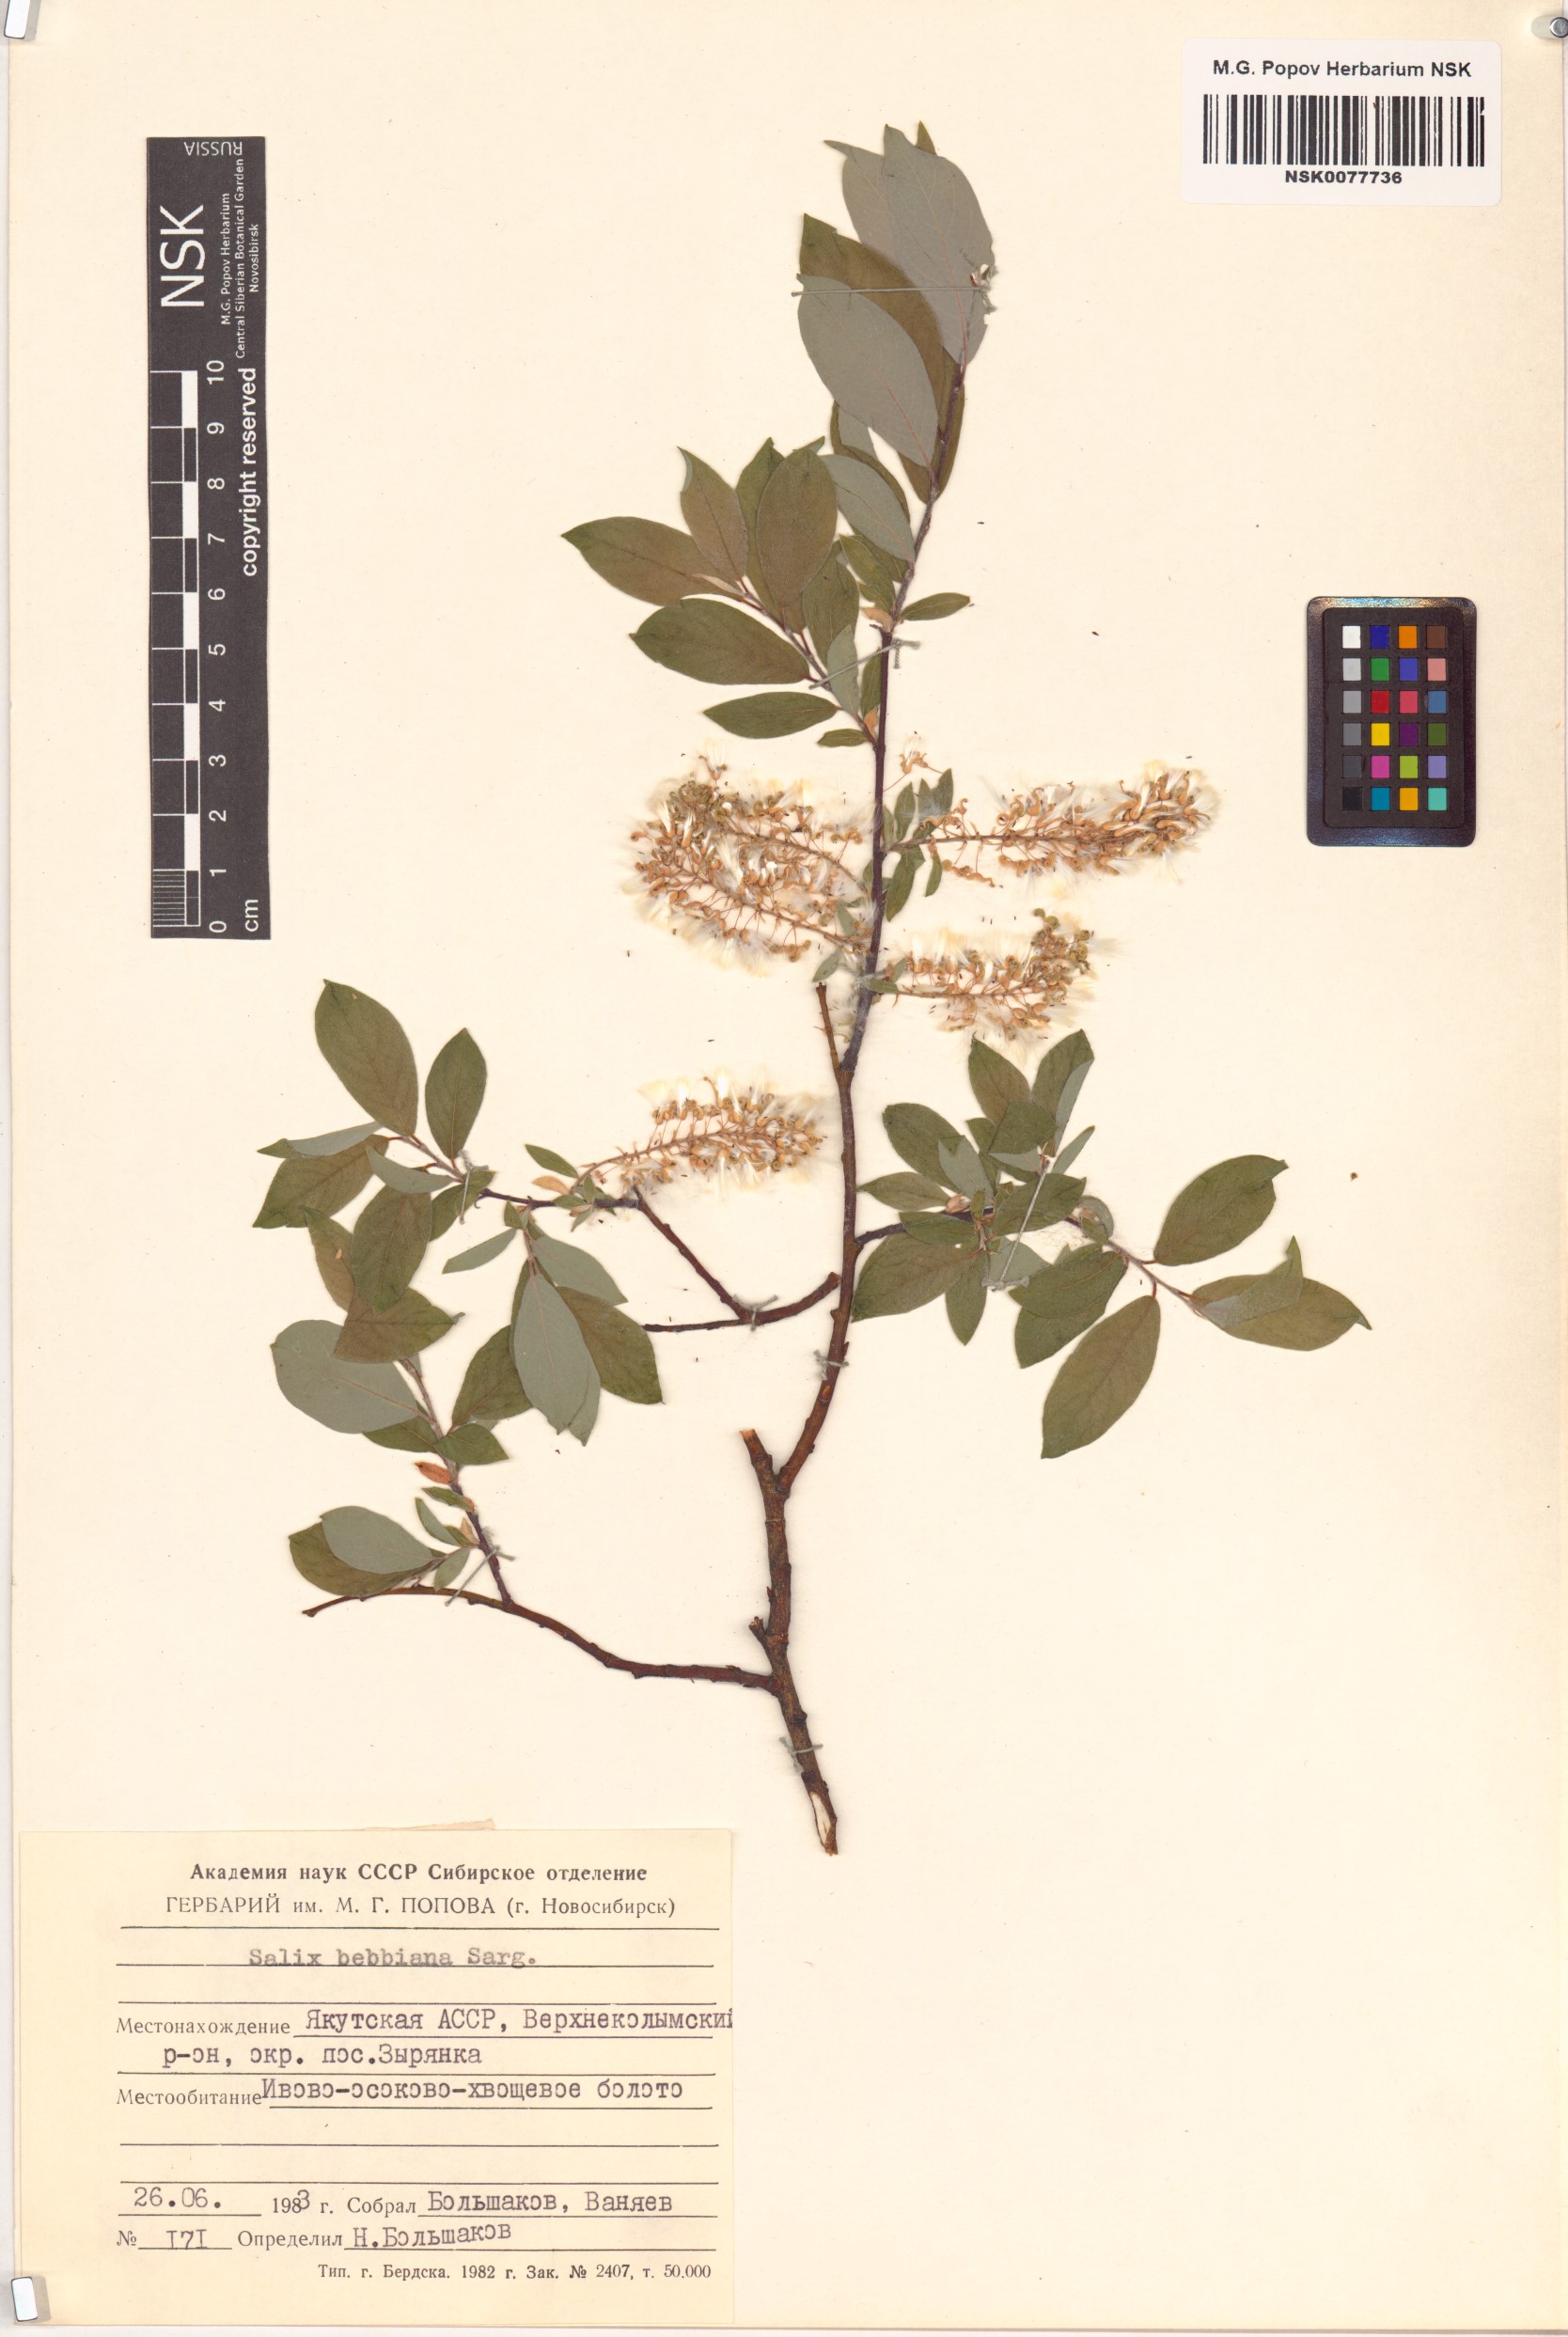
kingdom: Plantae
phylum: Tracheophyta
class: Magnoliopsida
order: Malpighiales
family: Salicaceae
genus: Salix
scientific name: Salix bebbiana
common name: Bebb's willow
